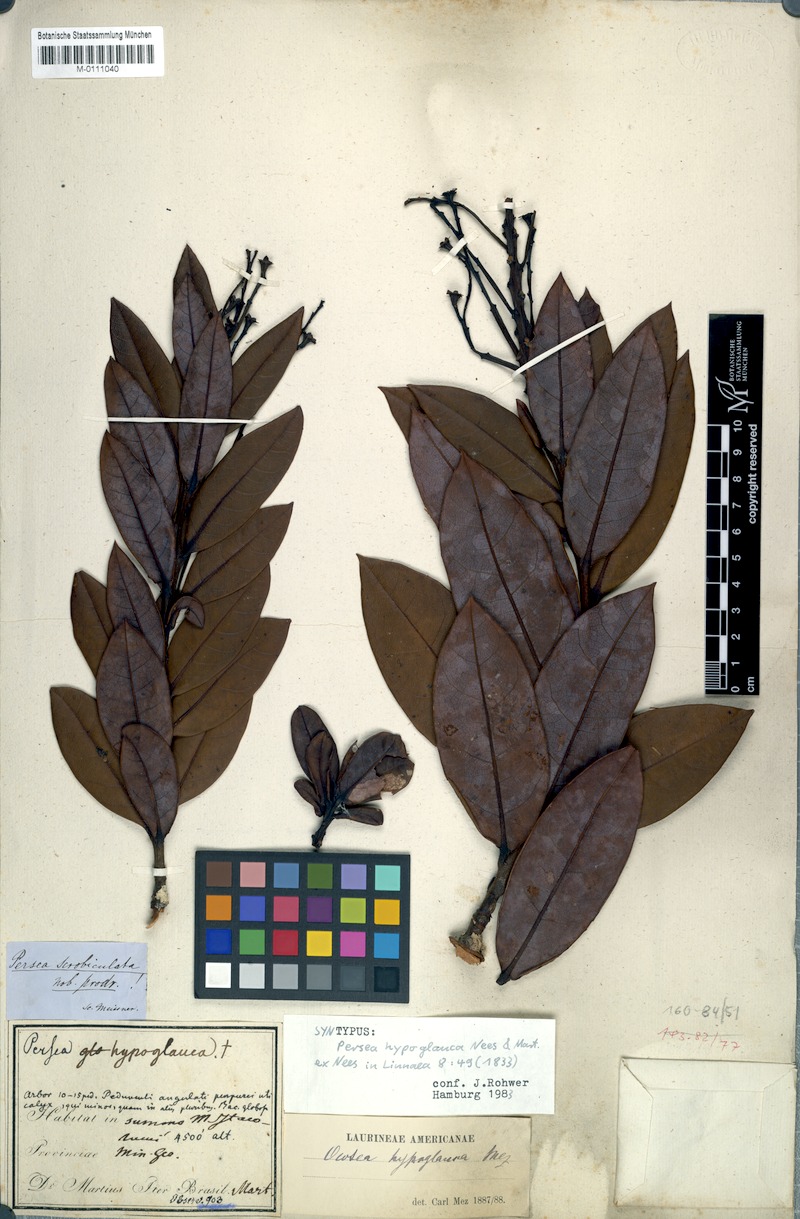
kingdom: Plantae
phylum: Tracheophyta
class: Magnoliopsida
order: Laurales
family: Lauraceae
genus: Ocotea
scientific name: Ocotea hypoglauca
